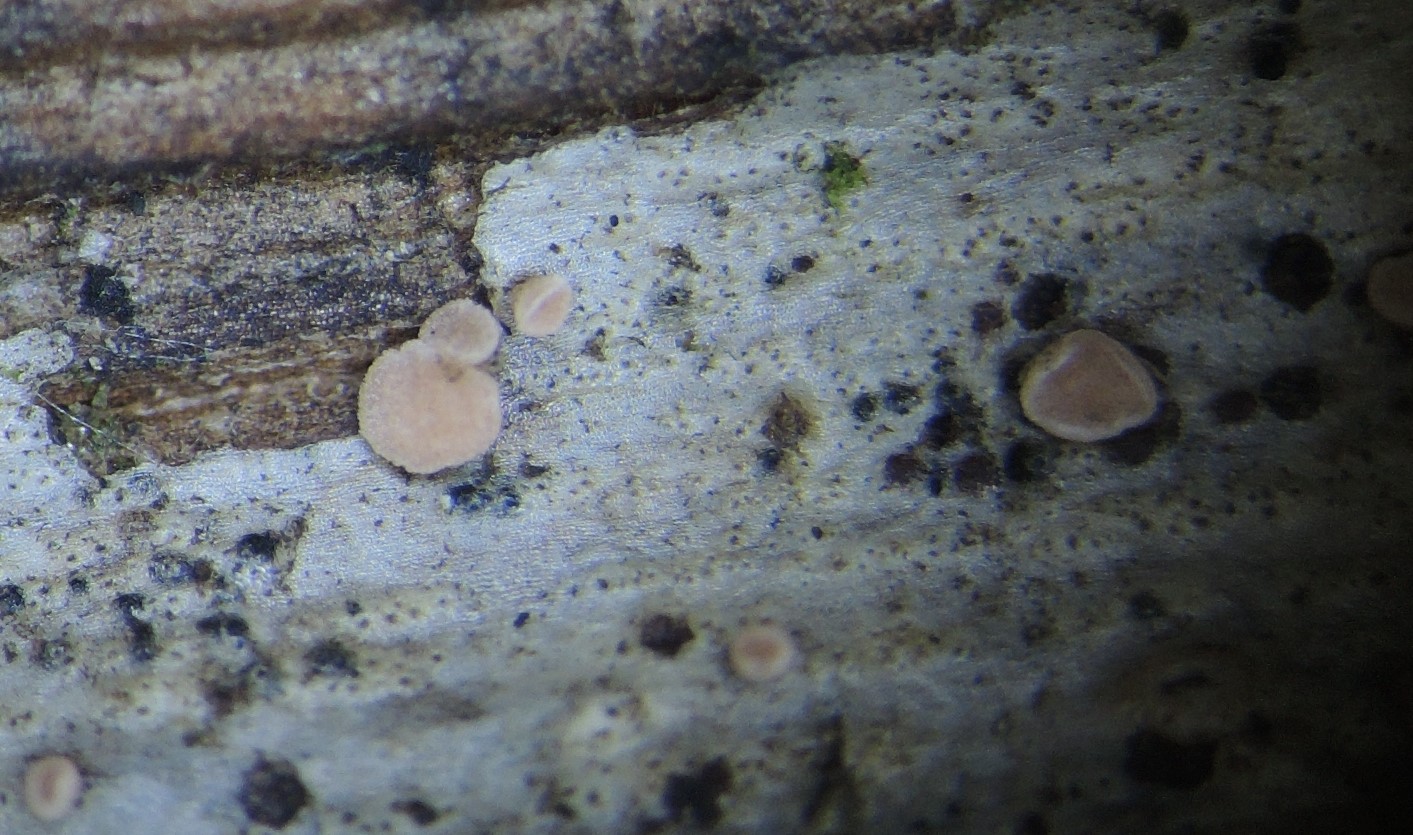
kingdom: Fungi
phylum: Ascomycota
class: Leotiomycetes
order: Helotiales
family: Dermateaceae
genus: Pezicula
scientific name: Pezicula rubi
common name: brombær-klyngeskive
